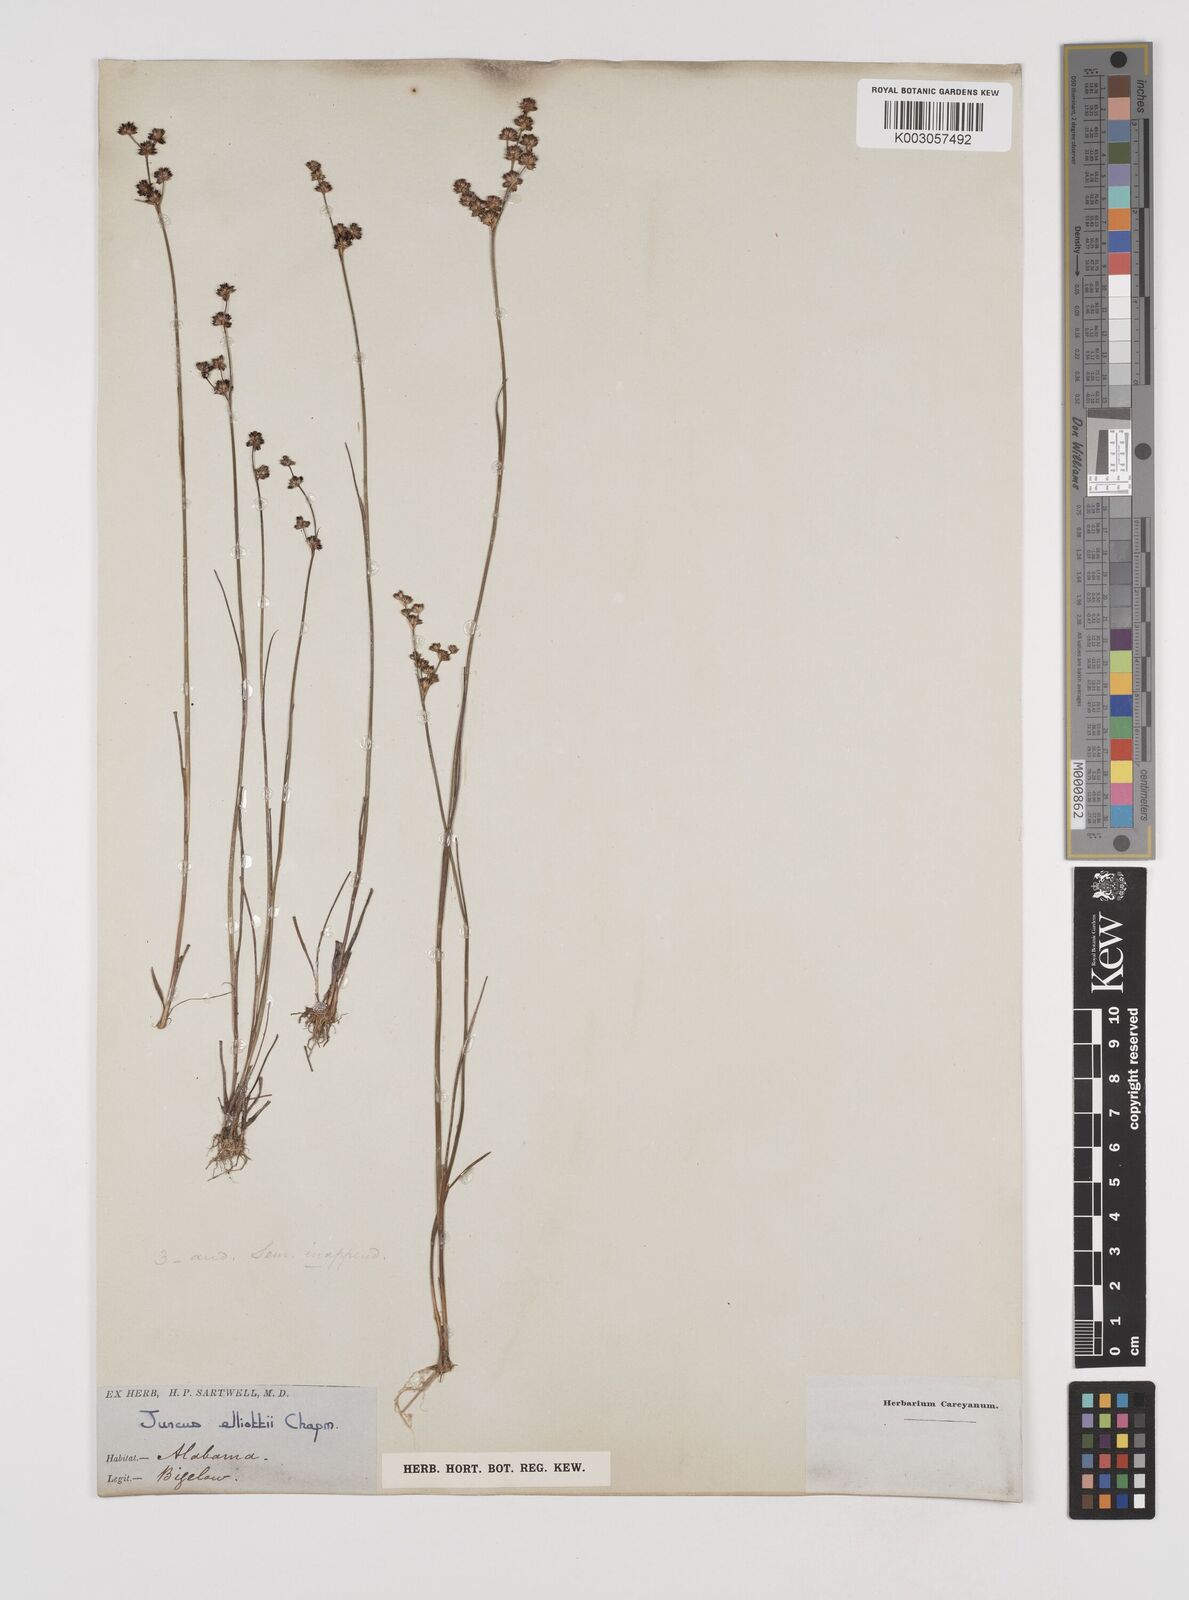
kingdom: Plantae
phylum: Tracheophyta
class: Liliopsida
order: Poales
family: Juncaceae
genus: Juncus
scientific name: Juncus elliottii
